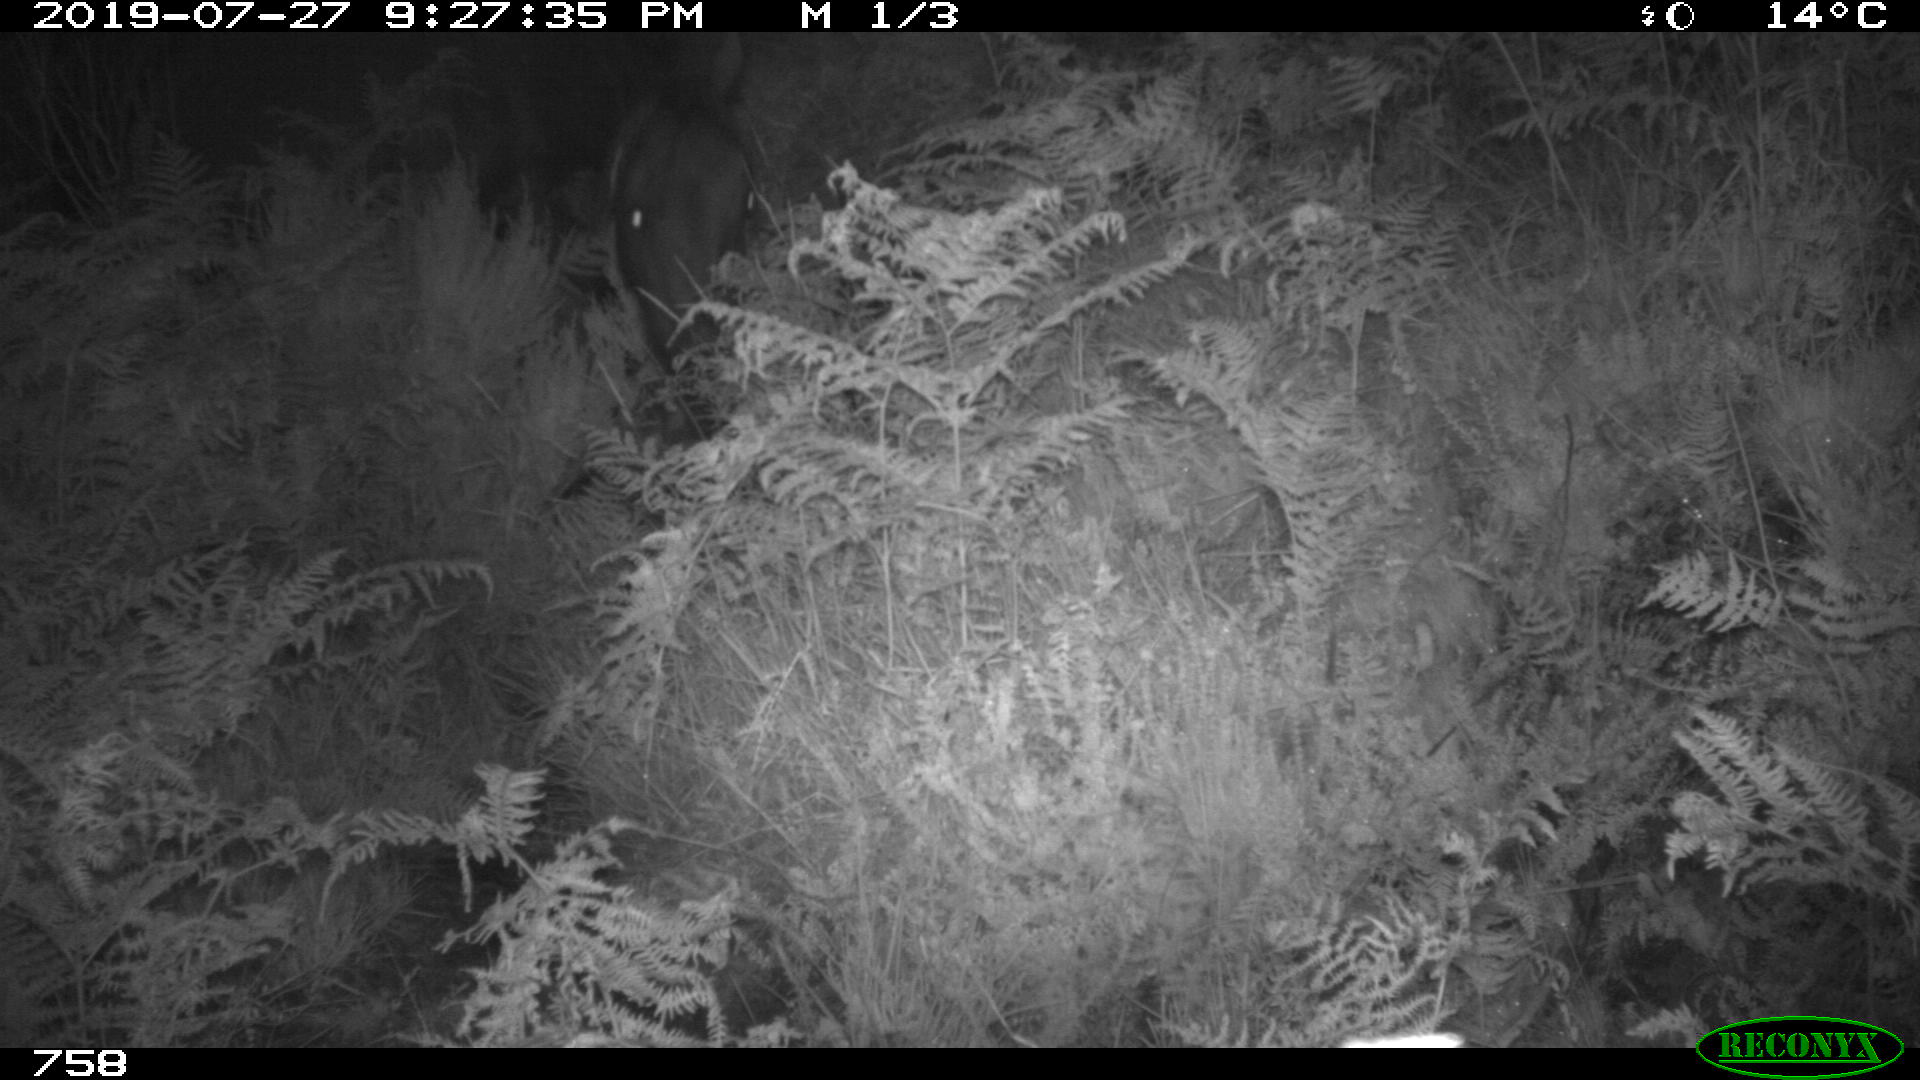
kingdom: Animalia
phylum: Chordata
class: Mammalia
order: Perissodactyla
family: Equidae
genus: Equus
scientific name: Equus caballus
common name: Horse
